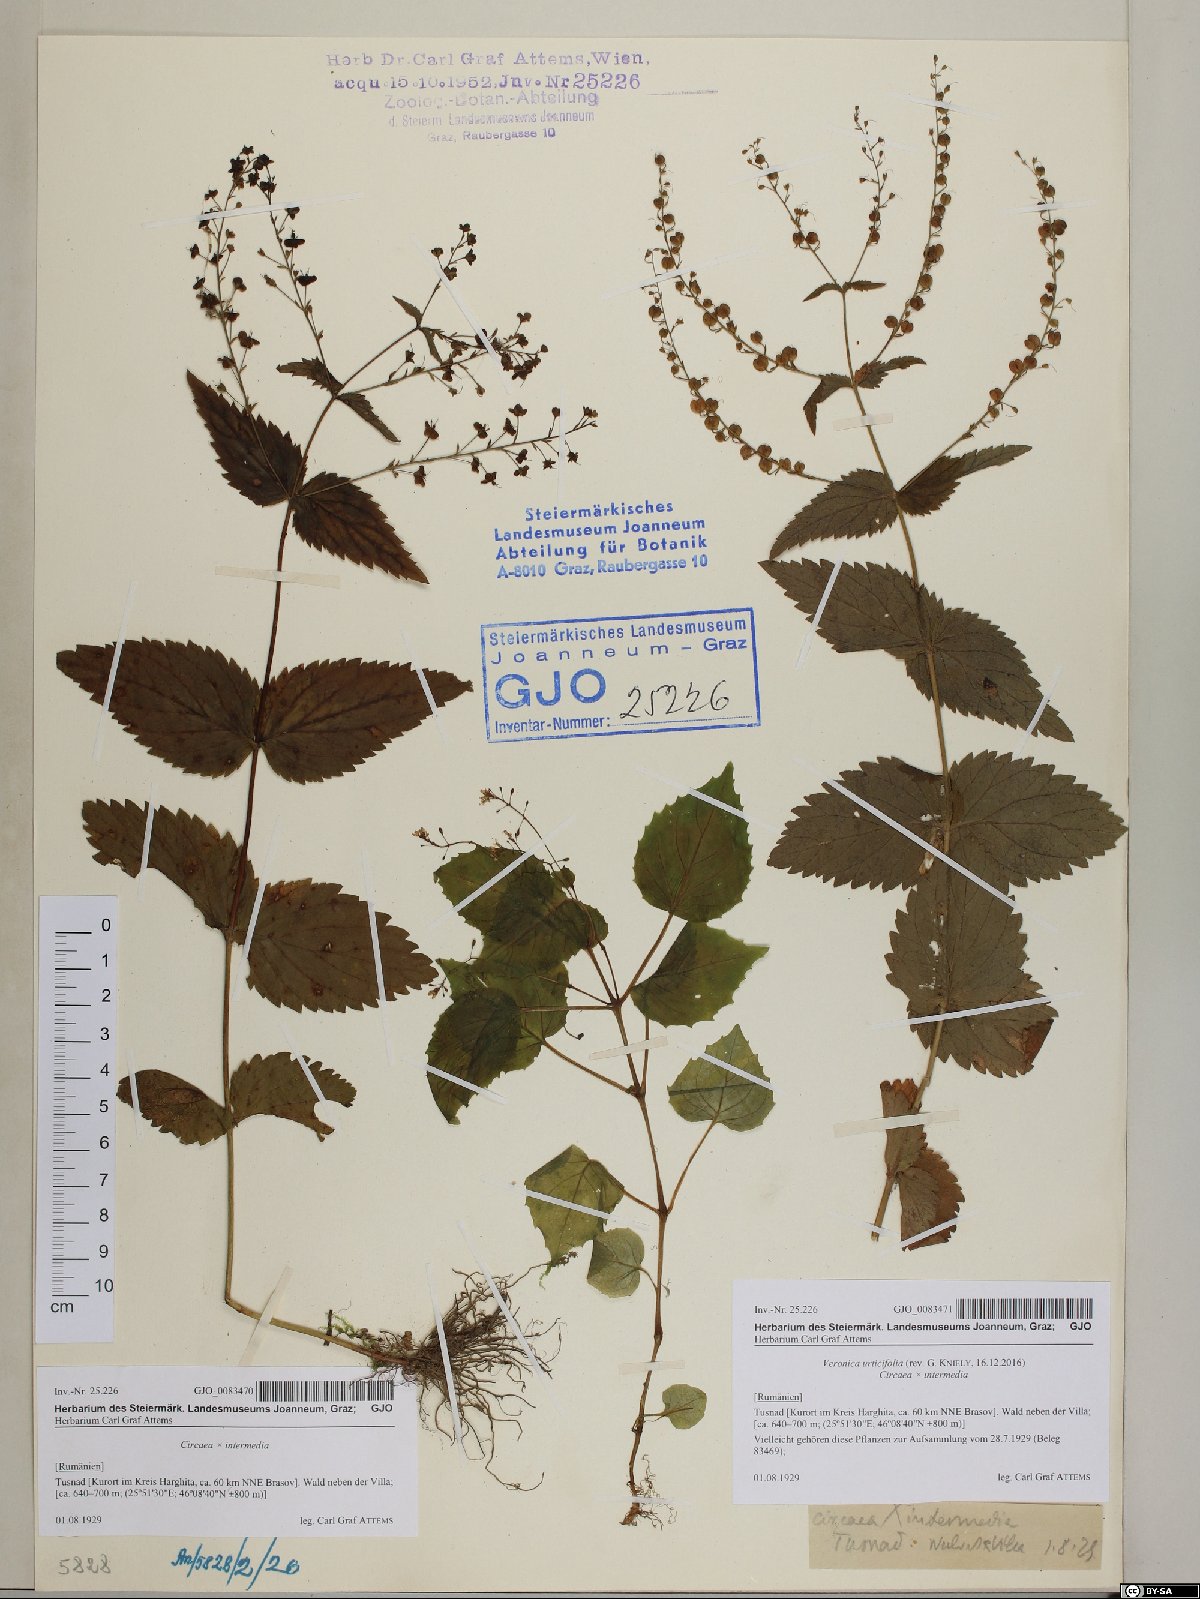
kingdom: Plantae
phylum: Tracheophyta
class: Magnoliopsida
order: Lamiales
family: Plantaginaceae
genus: Veronica
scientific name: Veronica urticifolia
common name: Nettle-leaf speedwell
